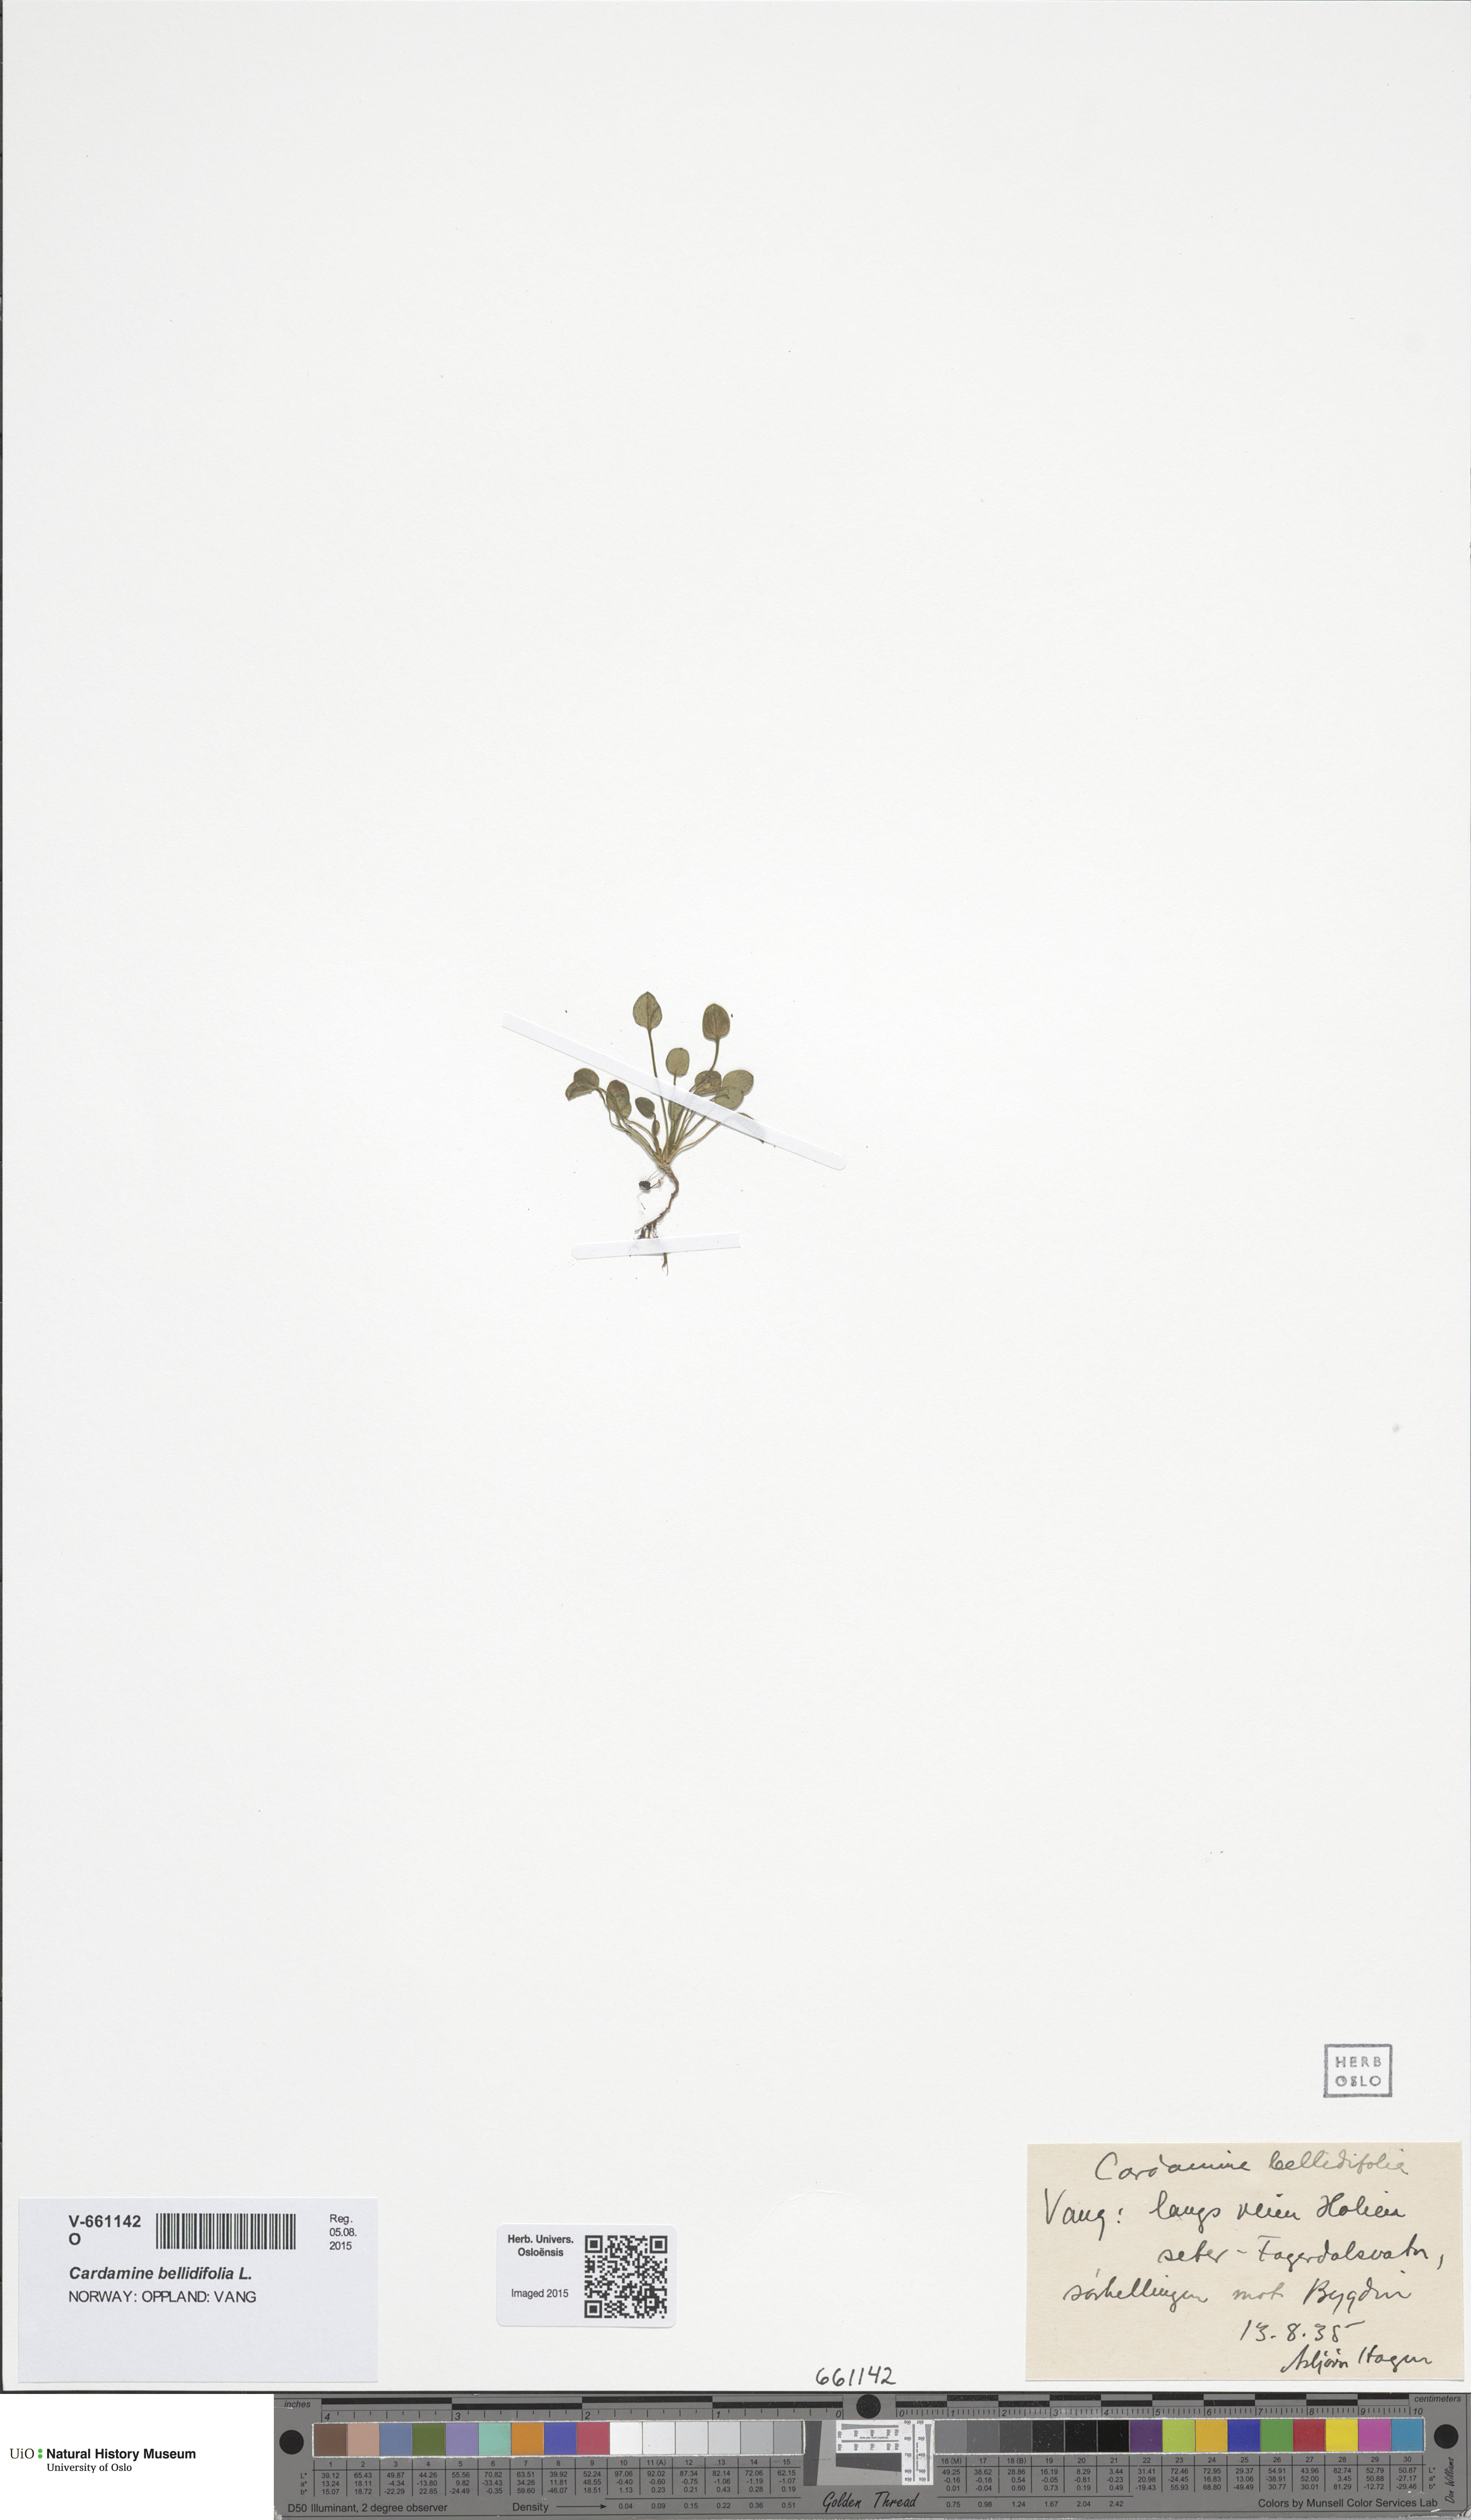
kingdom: Plantae
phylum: Tracheophyta
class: Magnoliopsida
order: Brassicales
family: Brassicaceae
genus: Cardamine
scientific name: Cardamine bellidifolia
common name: Alpine bittercress
